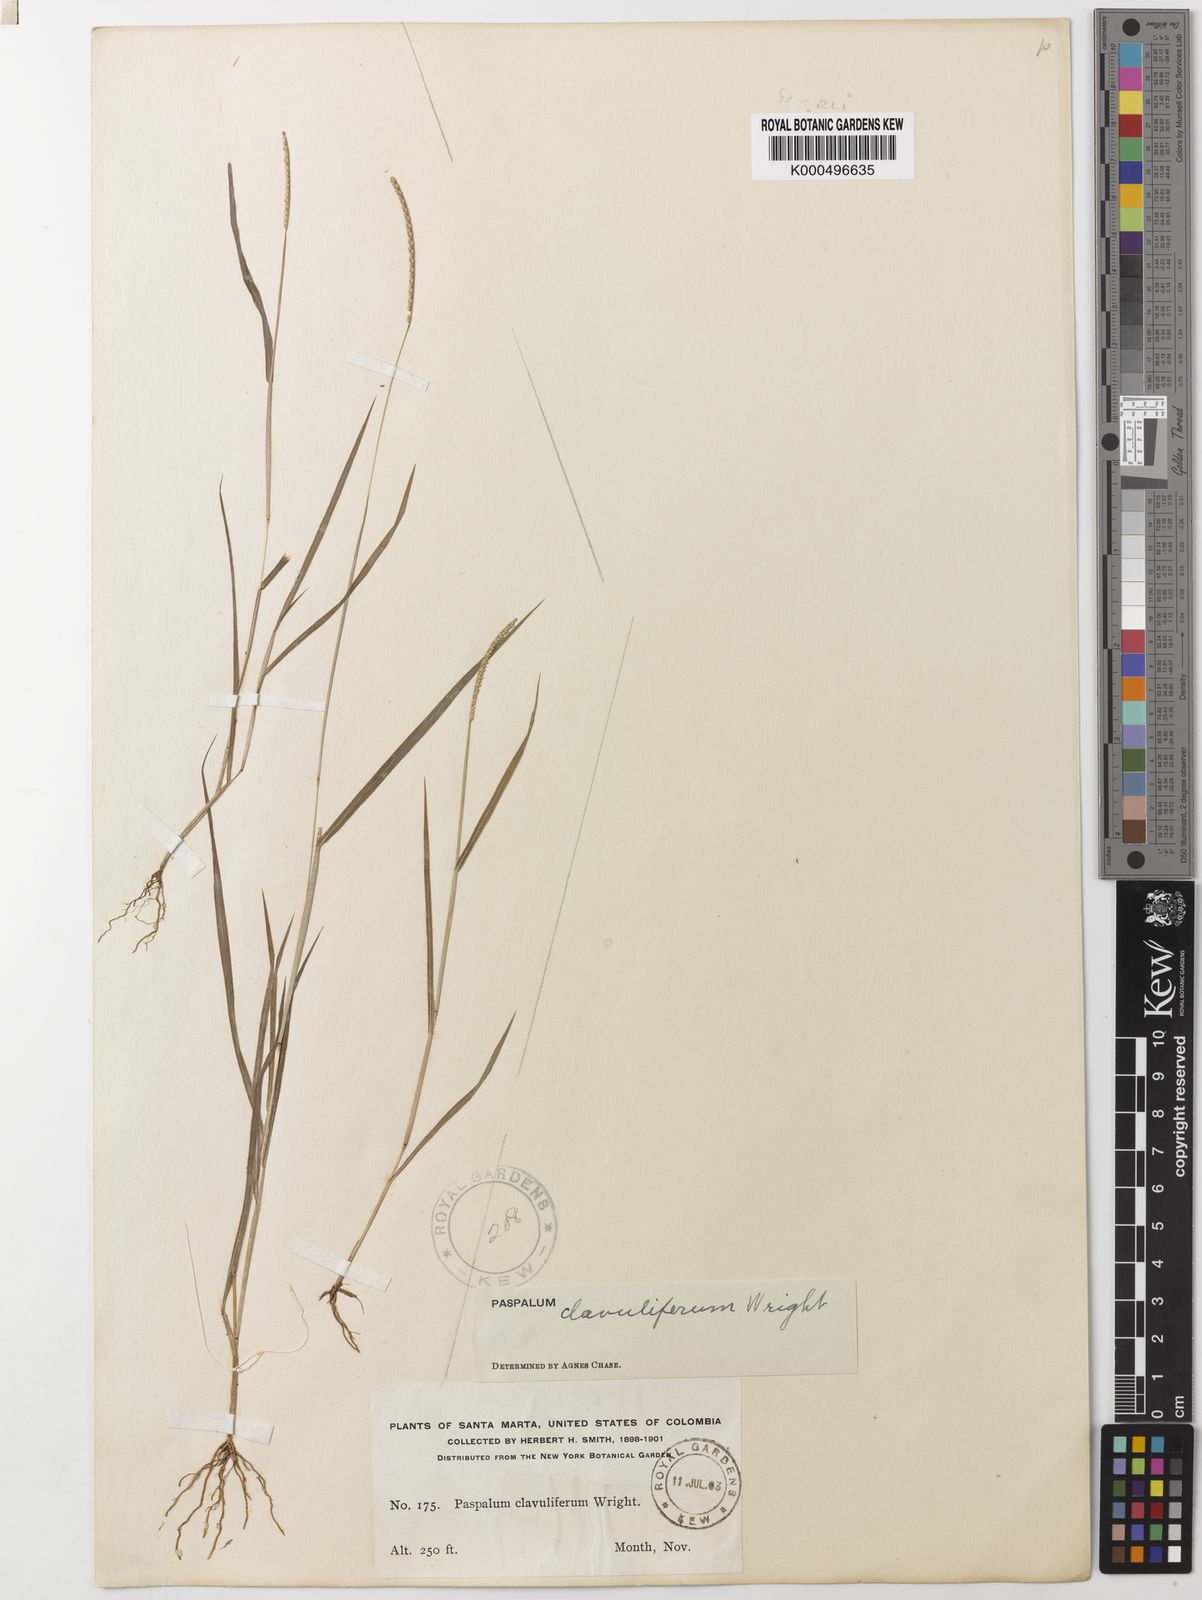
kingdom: Plantae
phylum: Tracheophyta
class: Liliopsida
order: Poales
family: Poaceae
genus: Paspalum
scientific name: Paspalum clavuliferum
